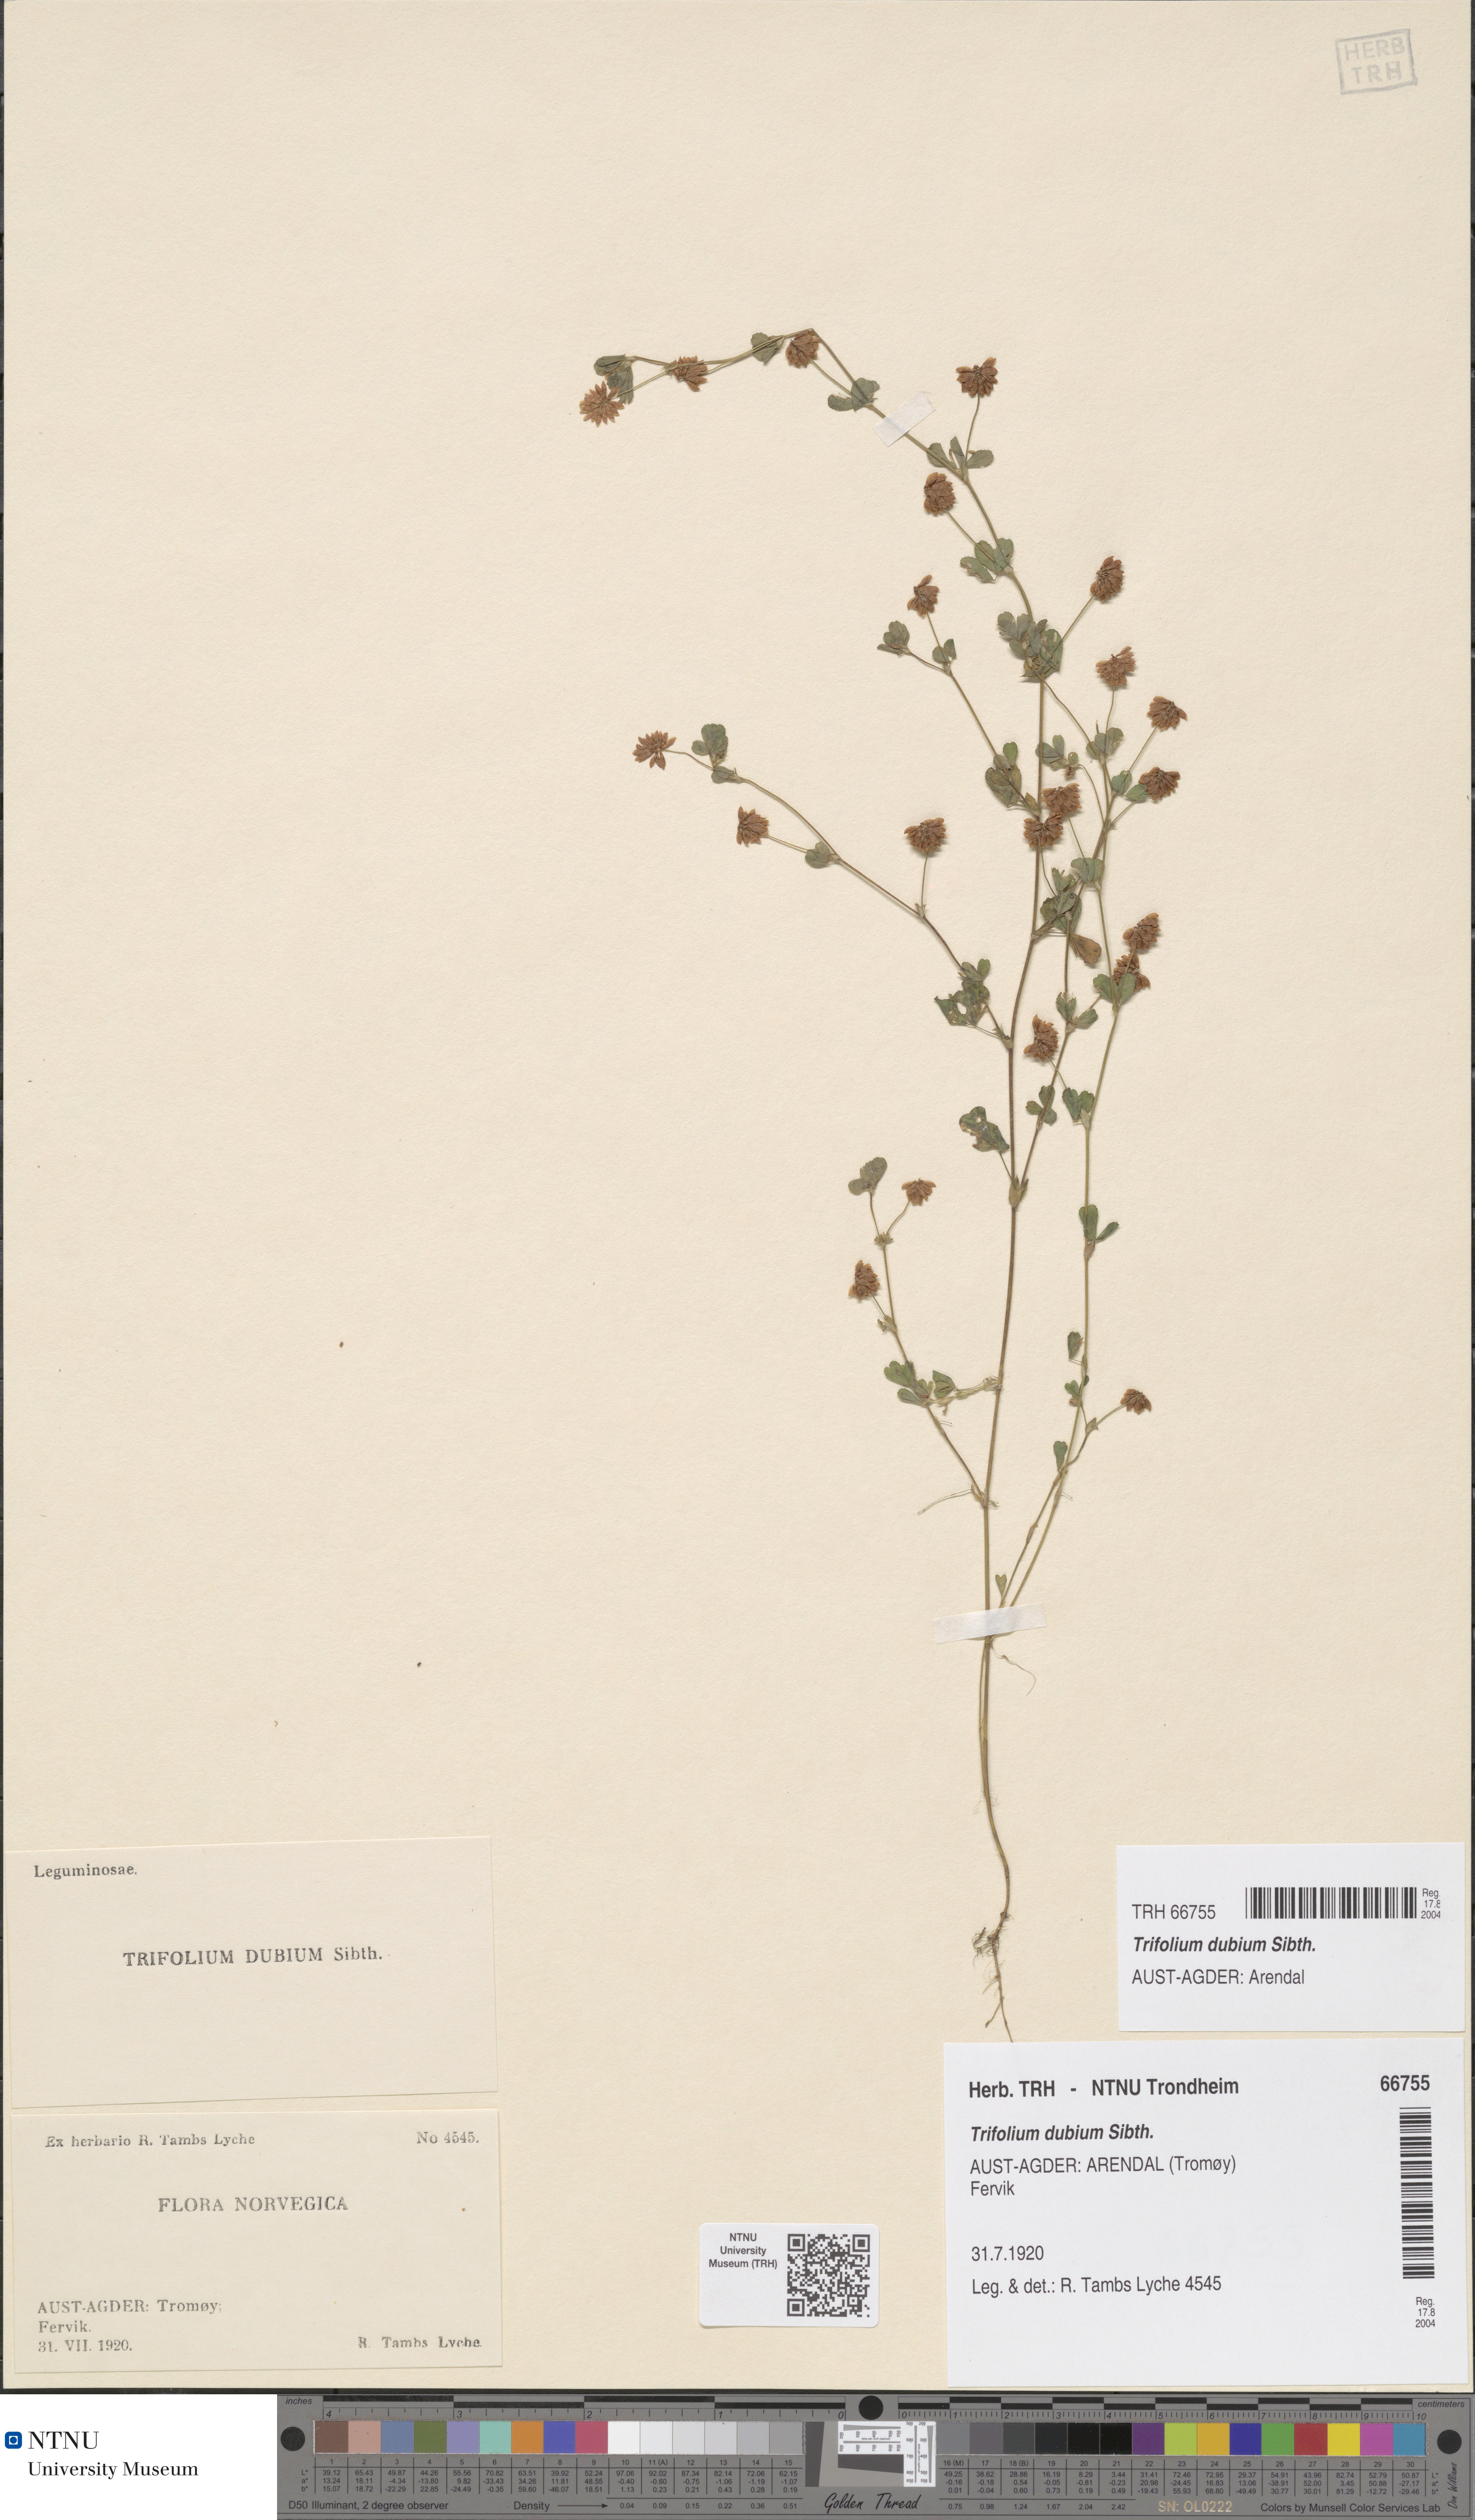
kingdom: Plantae
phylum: Tracheophyta
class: Magnoliopsida
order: Fabales
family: Fabaceae
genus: Trifolium
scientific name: Trifolium dubium
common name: Suckling clover
